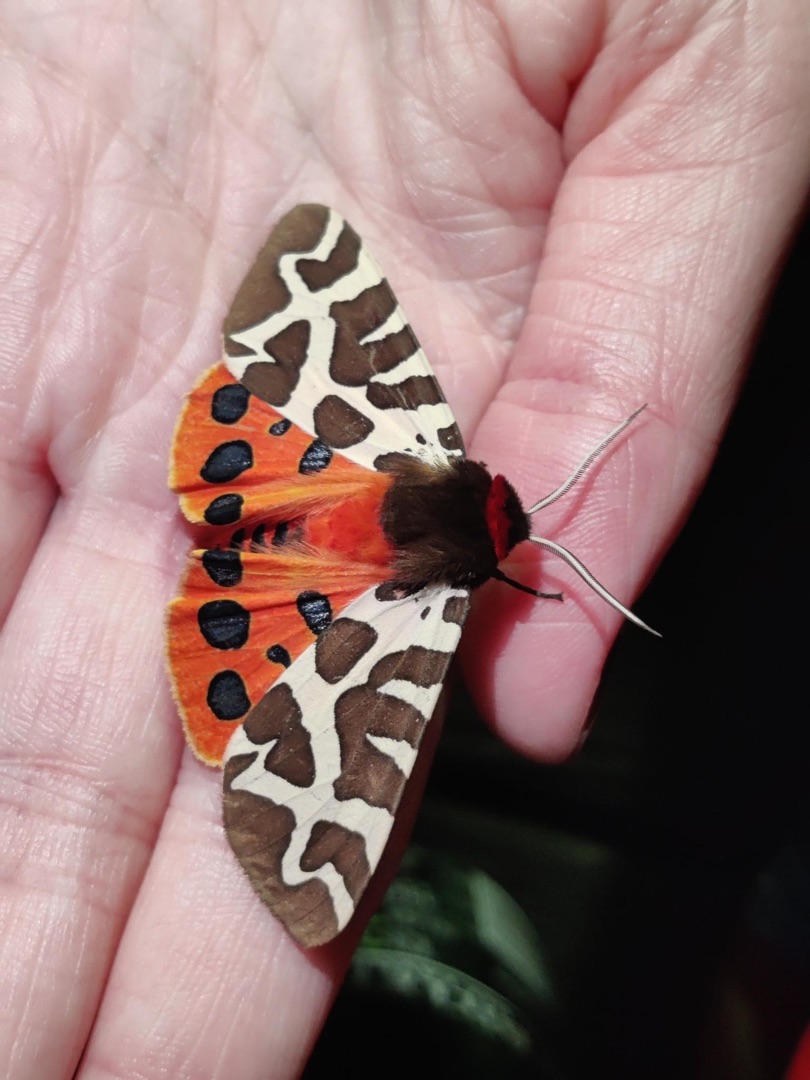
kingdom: Animalia
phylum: Arthropoda
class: Insecta
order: Lepidoptera
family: Erebidae
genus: Arctia
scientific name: Arctia caja
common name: Brun bjørn
